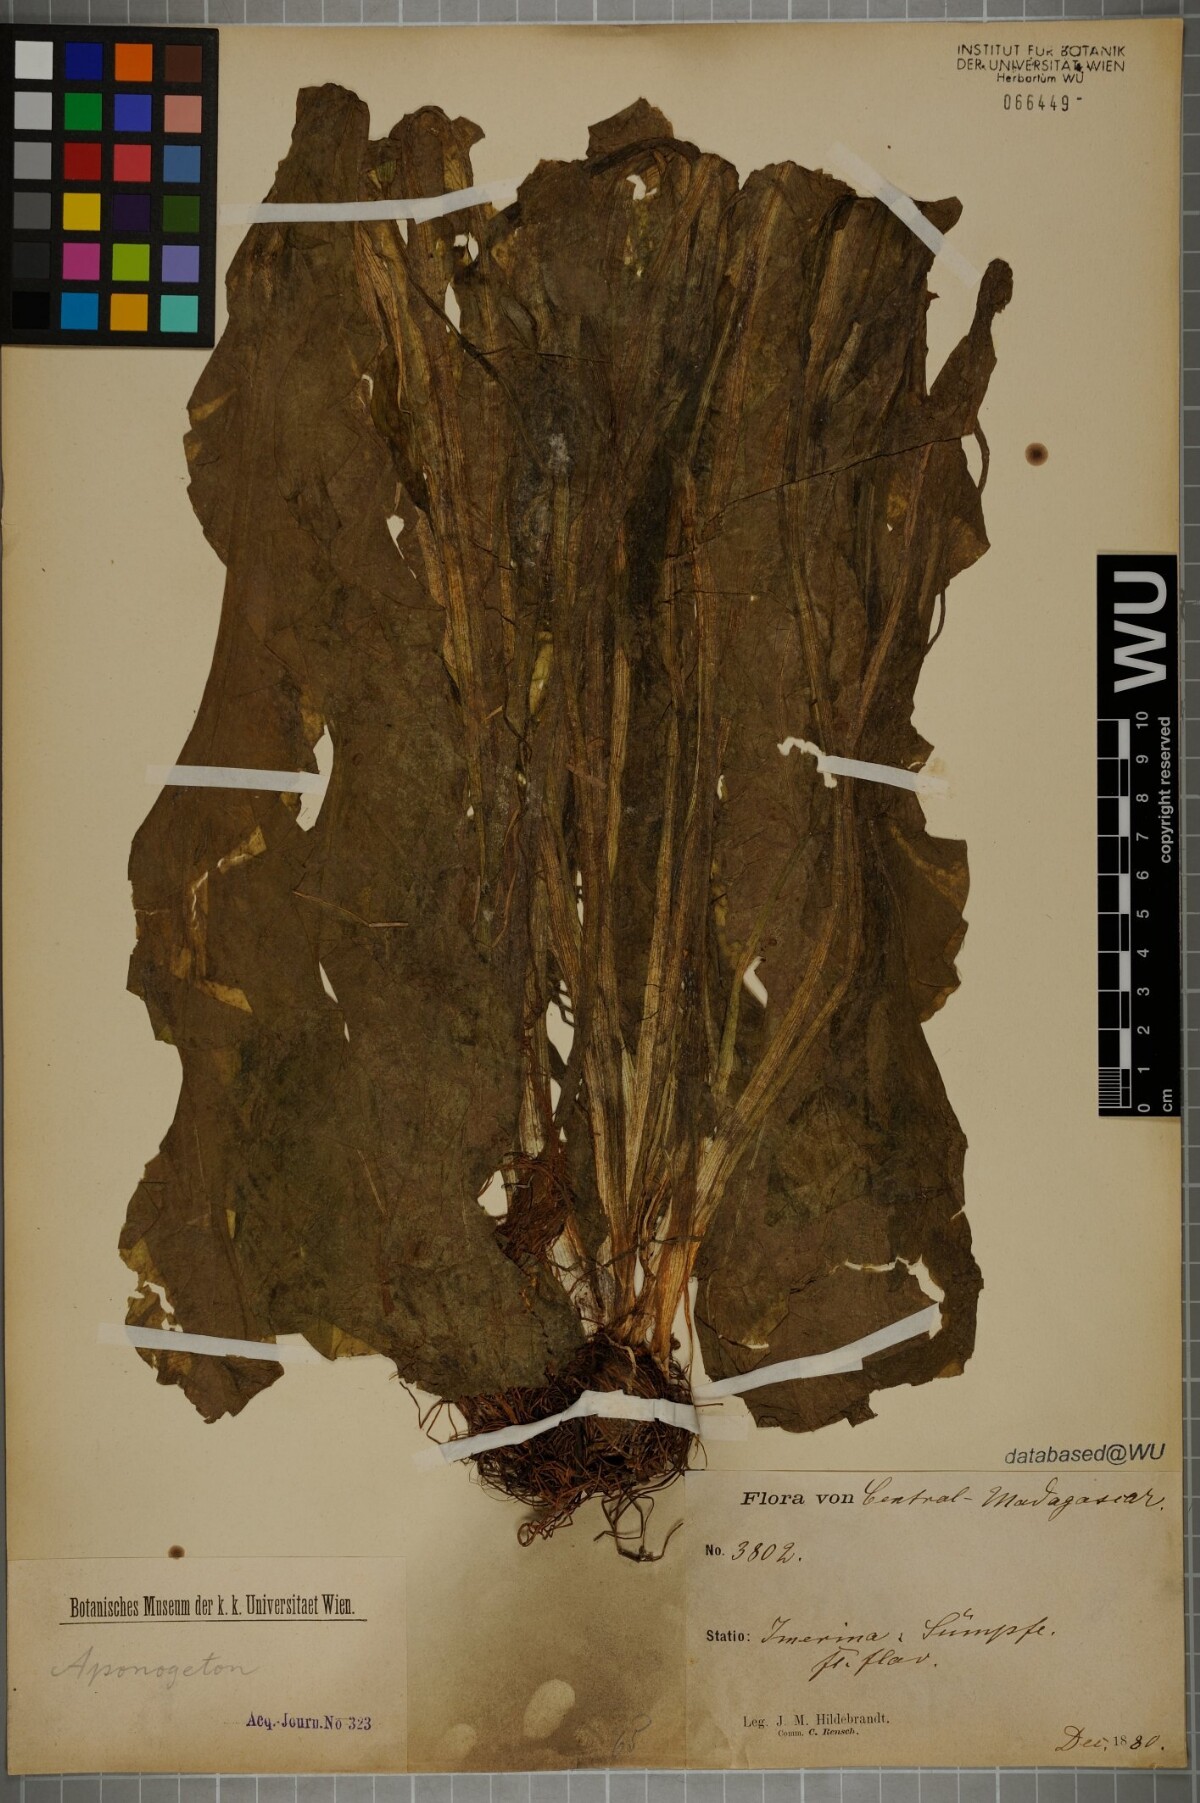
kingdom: Plantae
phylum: Tracheophyta
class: Liliopsida
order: Alismatales
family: Aponogetonaceae
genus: Aponogeton
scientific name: Aponogeton ulvaceus
